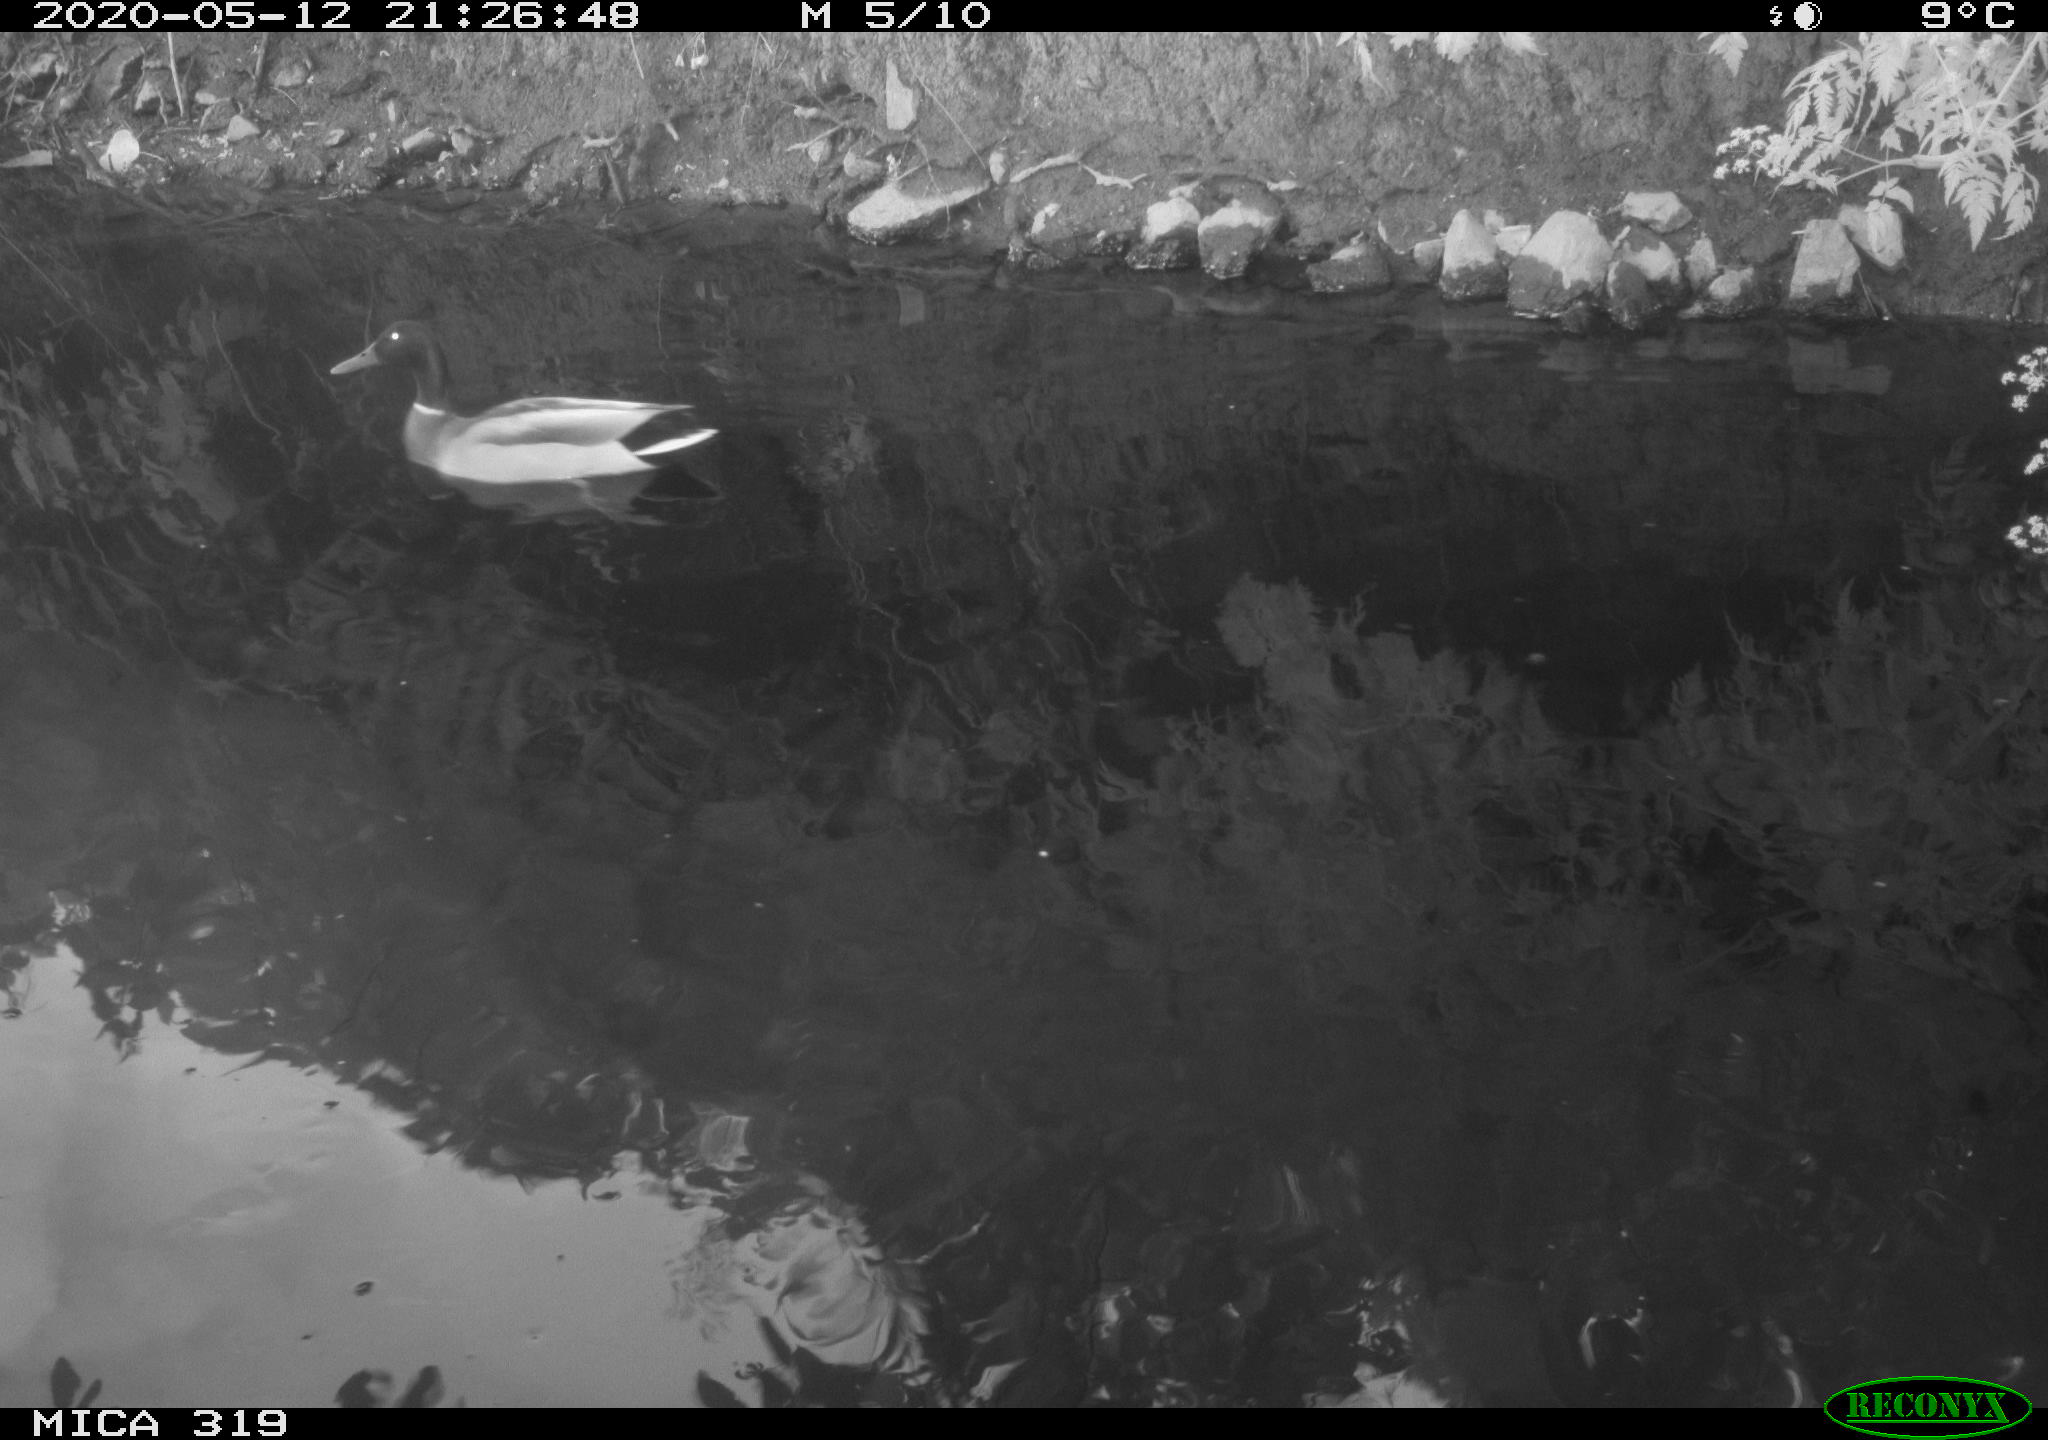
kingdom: Animalia
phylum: Chordata
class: Aves
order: Anseriformes
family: Anatidae
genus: Anas
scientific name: Anas platyrhynchos
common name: Mallard
